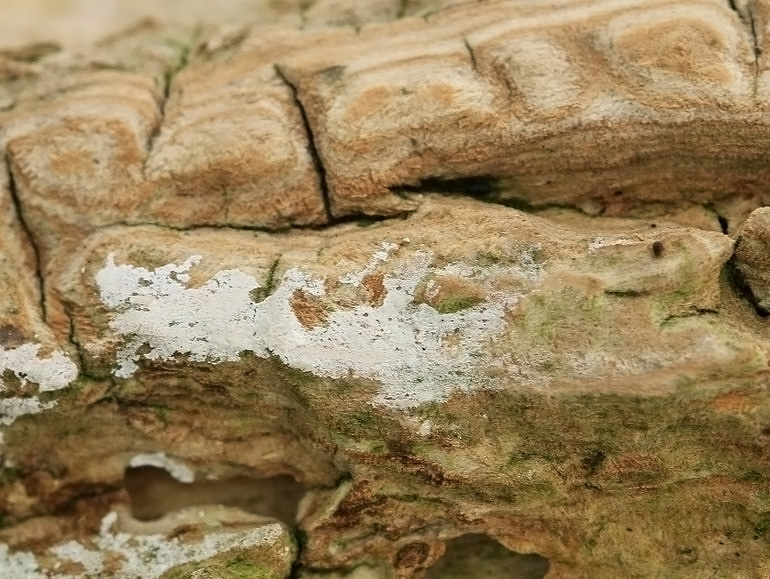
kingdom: Fungi
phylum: Basidiomycota
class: Agaricomycetes
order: Corticiales
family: Corticiaceae
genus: Lyomyces
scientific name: Lyomyces sambuci
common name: almindelig hyldehinde
